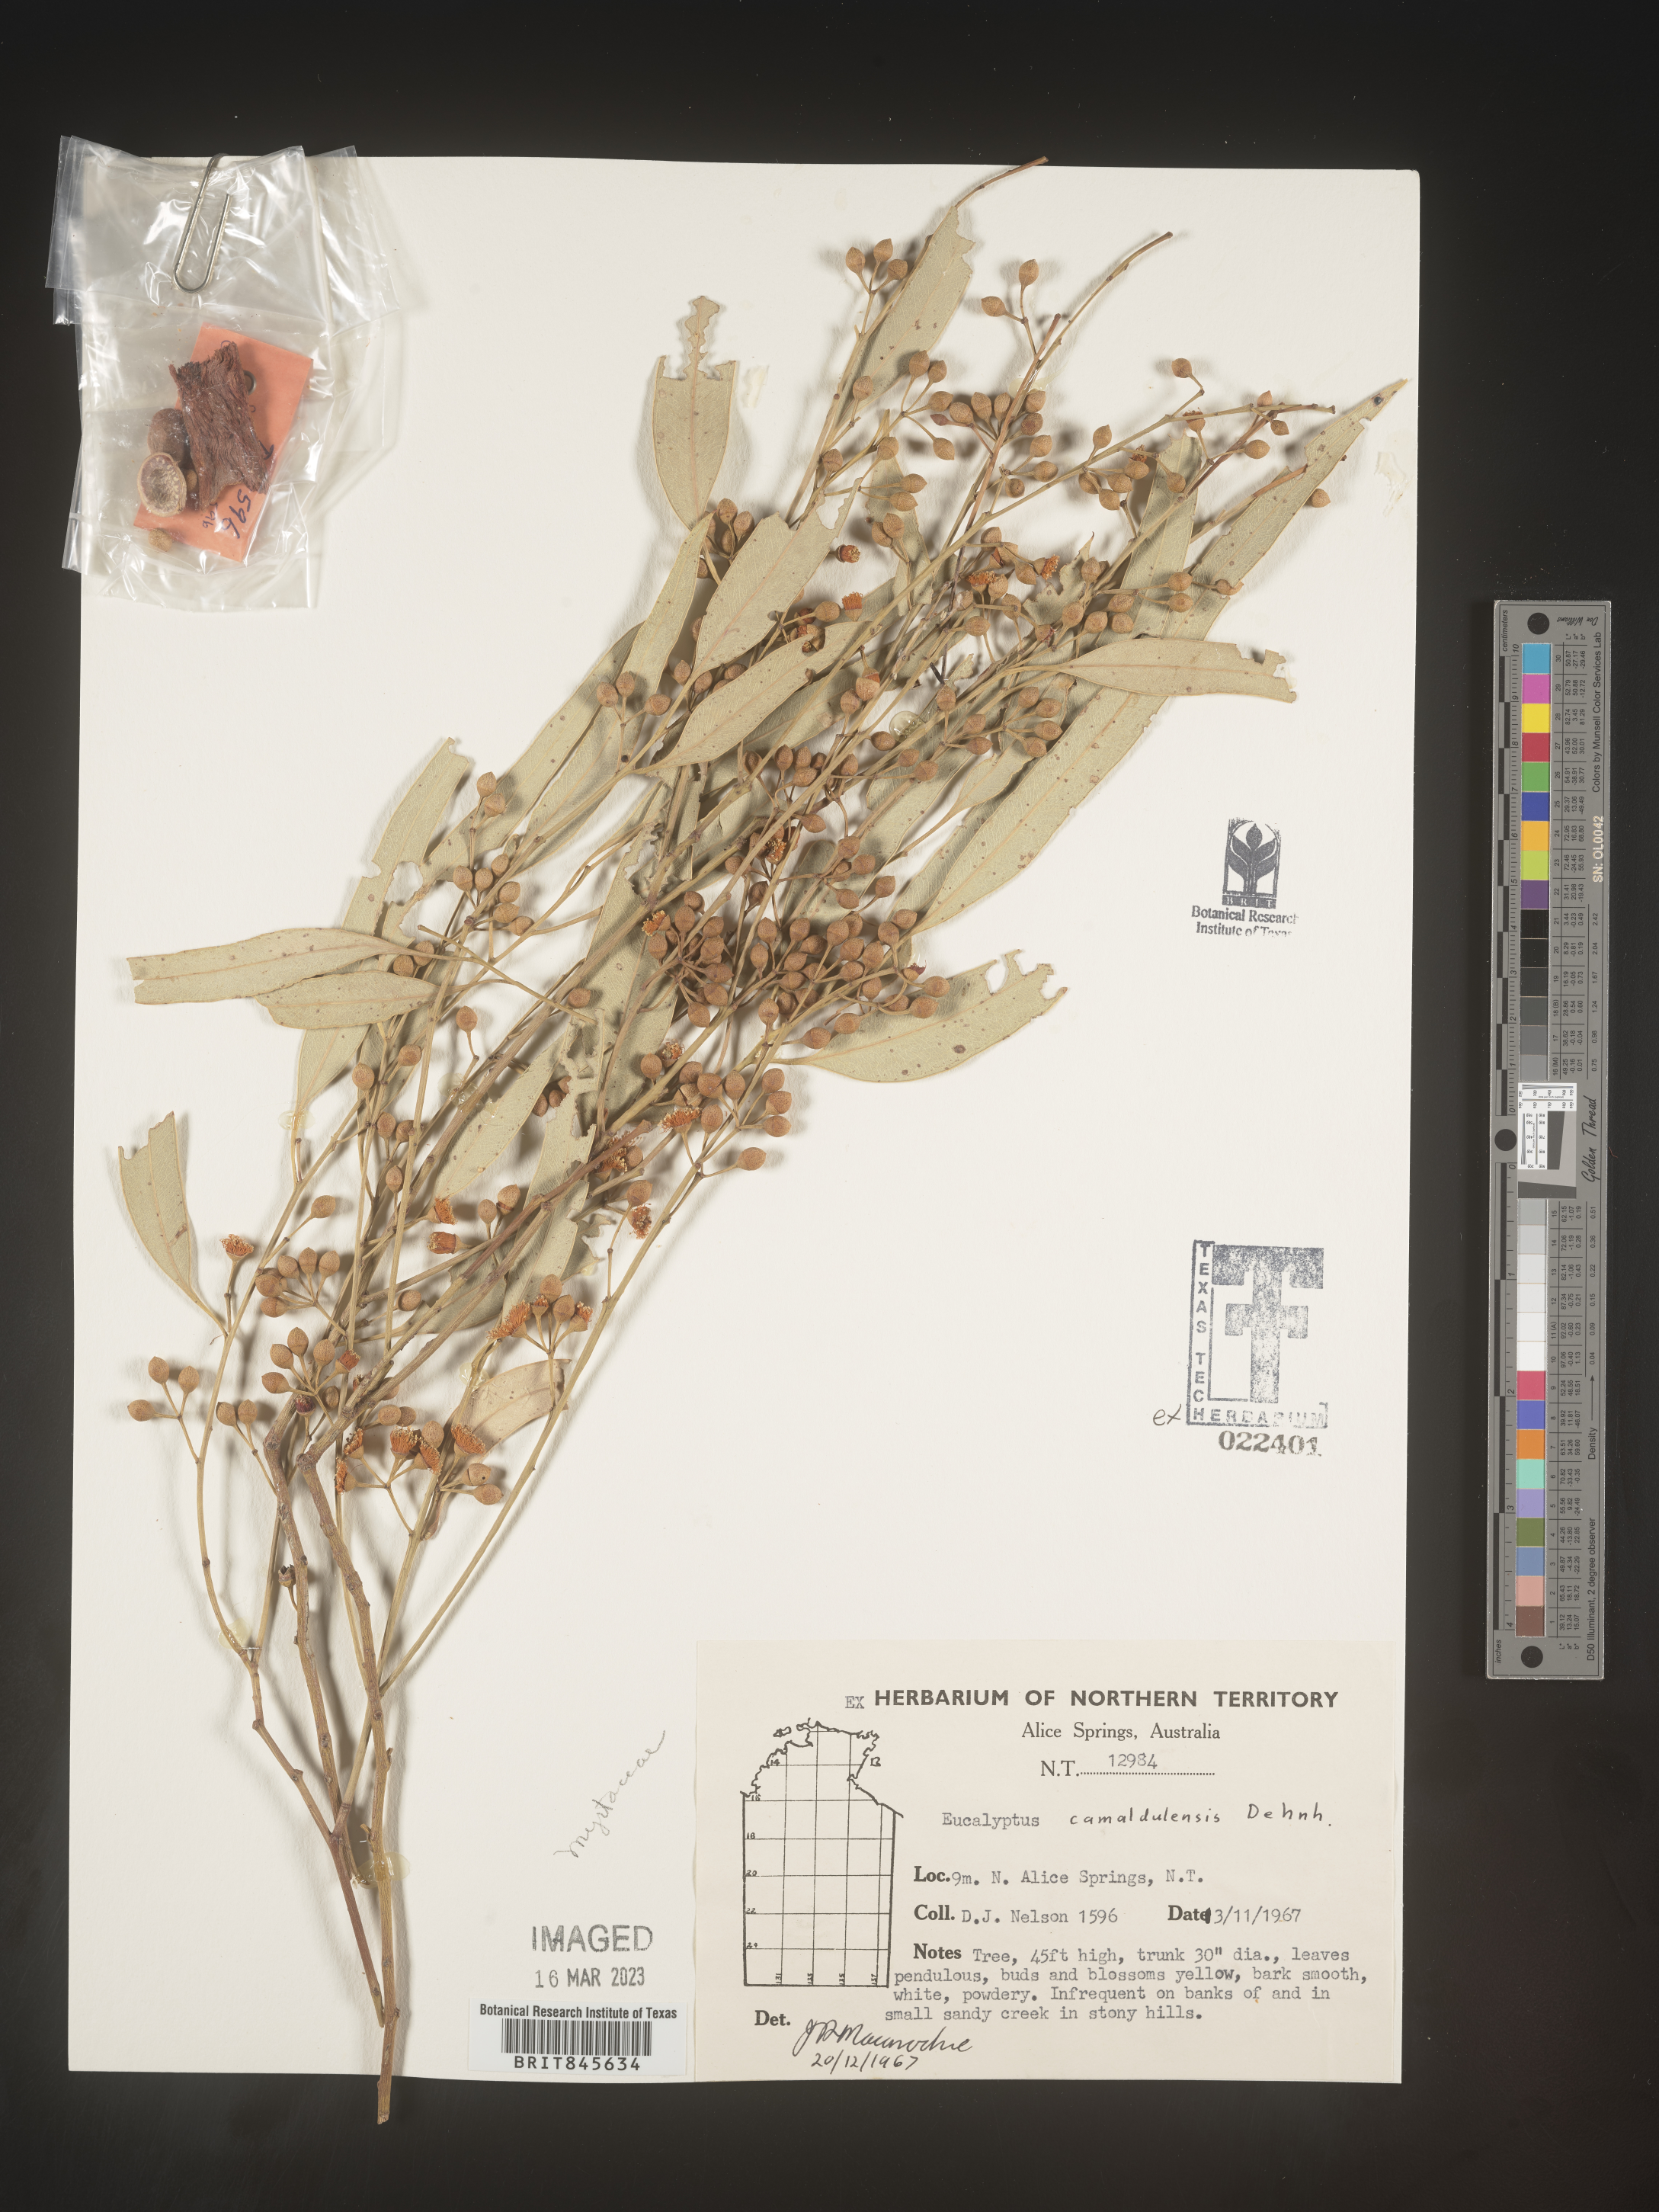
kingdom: Plantae
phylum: Tracheophyta
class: Magnoliopsida
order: Myrtales
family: Myrtaceae
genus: Eucalyptus
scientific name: Eucalyptus
